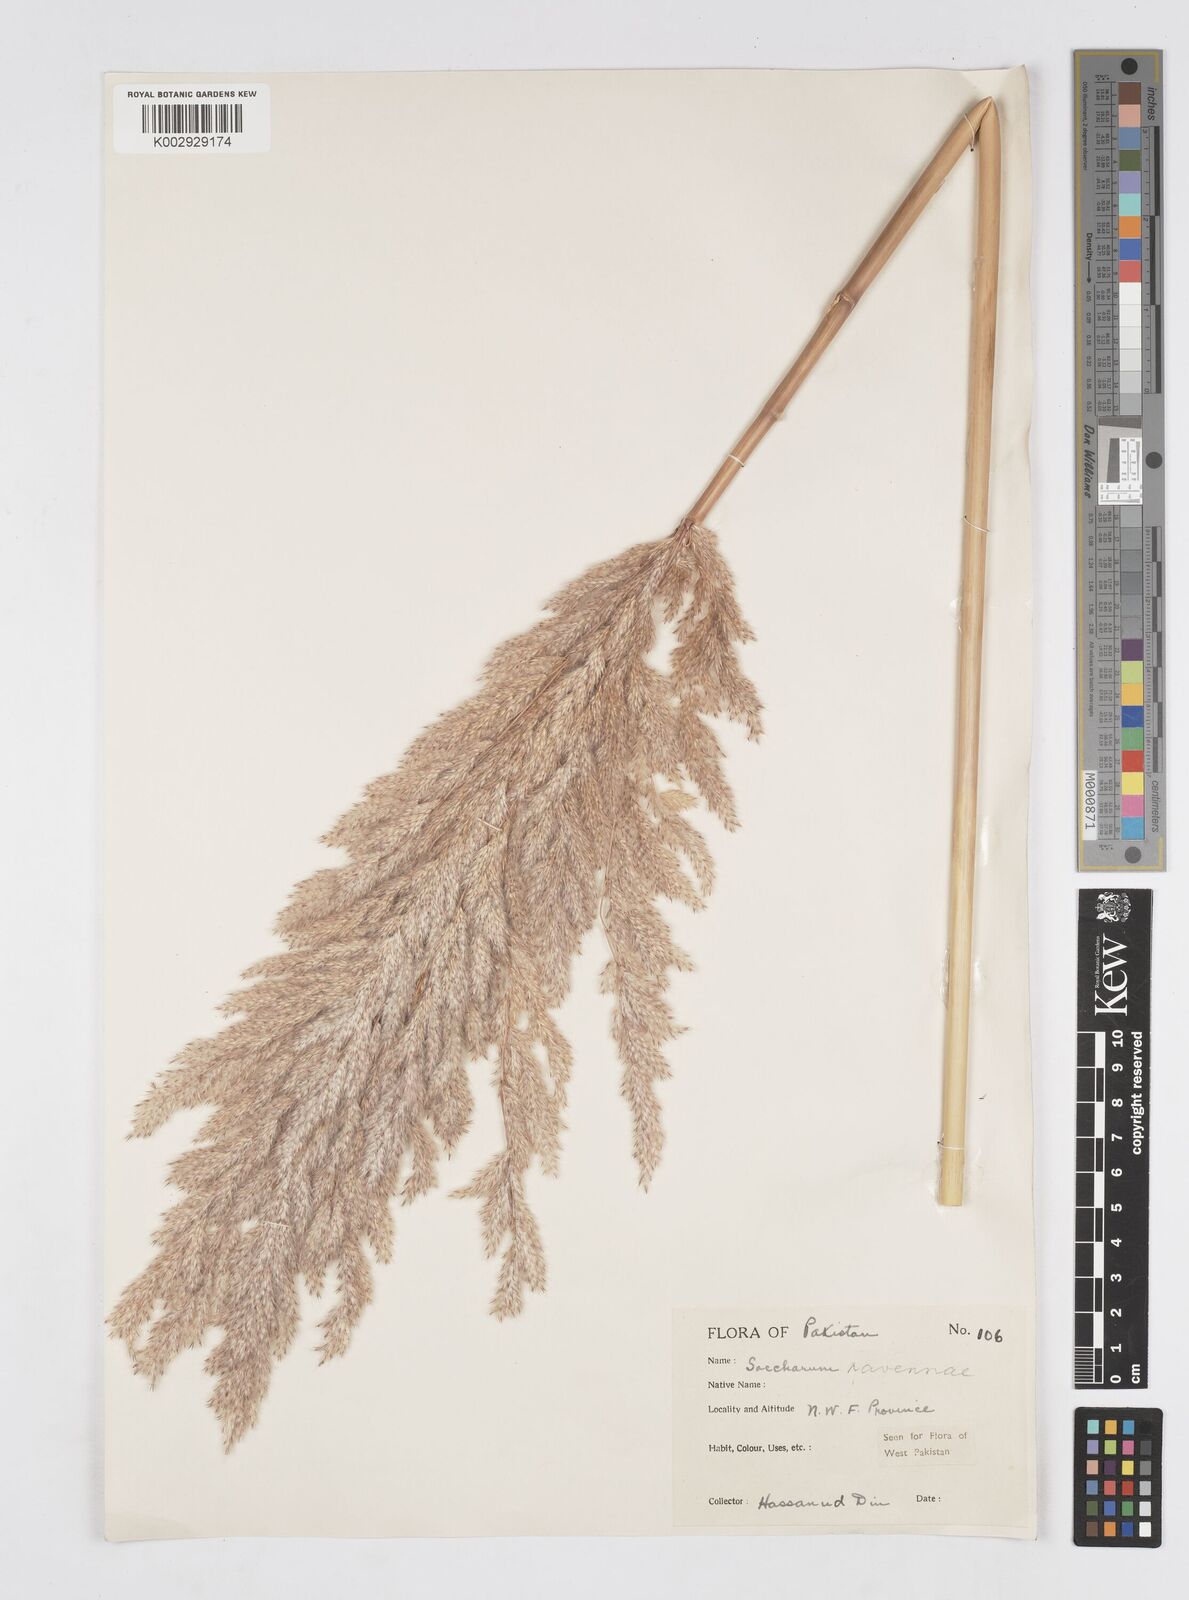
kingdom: Plantae
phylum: Tracheophyta
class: Liliopsida
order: Poales
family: Poaceae
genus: Tripidium
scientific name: Tripidium ravennae
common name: Ravenna grass
